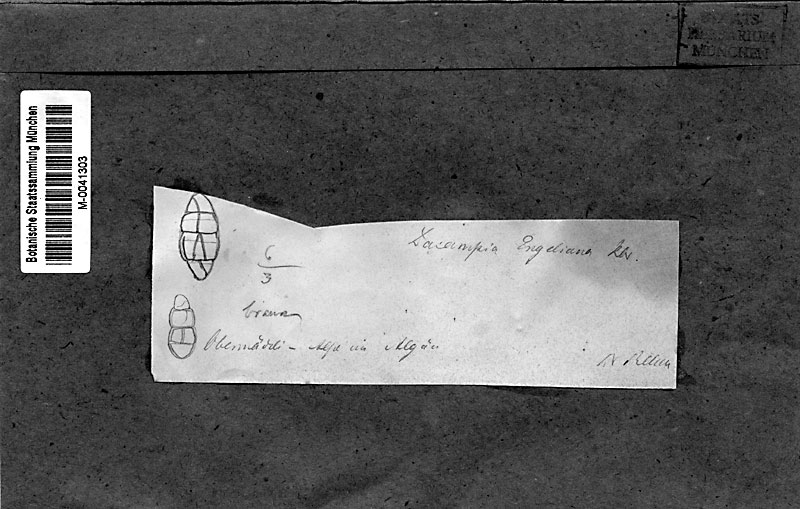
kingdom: Fungi
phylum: Ascomycota
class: Dothideomycetes
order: Pleosporales
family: Dacampiaceae
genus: Dacampia
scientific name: Dacampia engeliana
